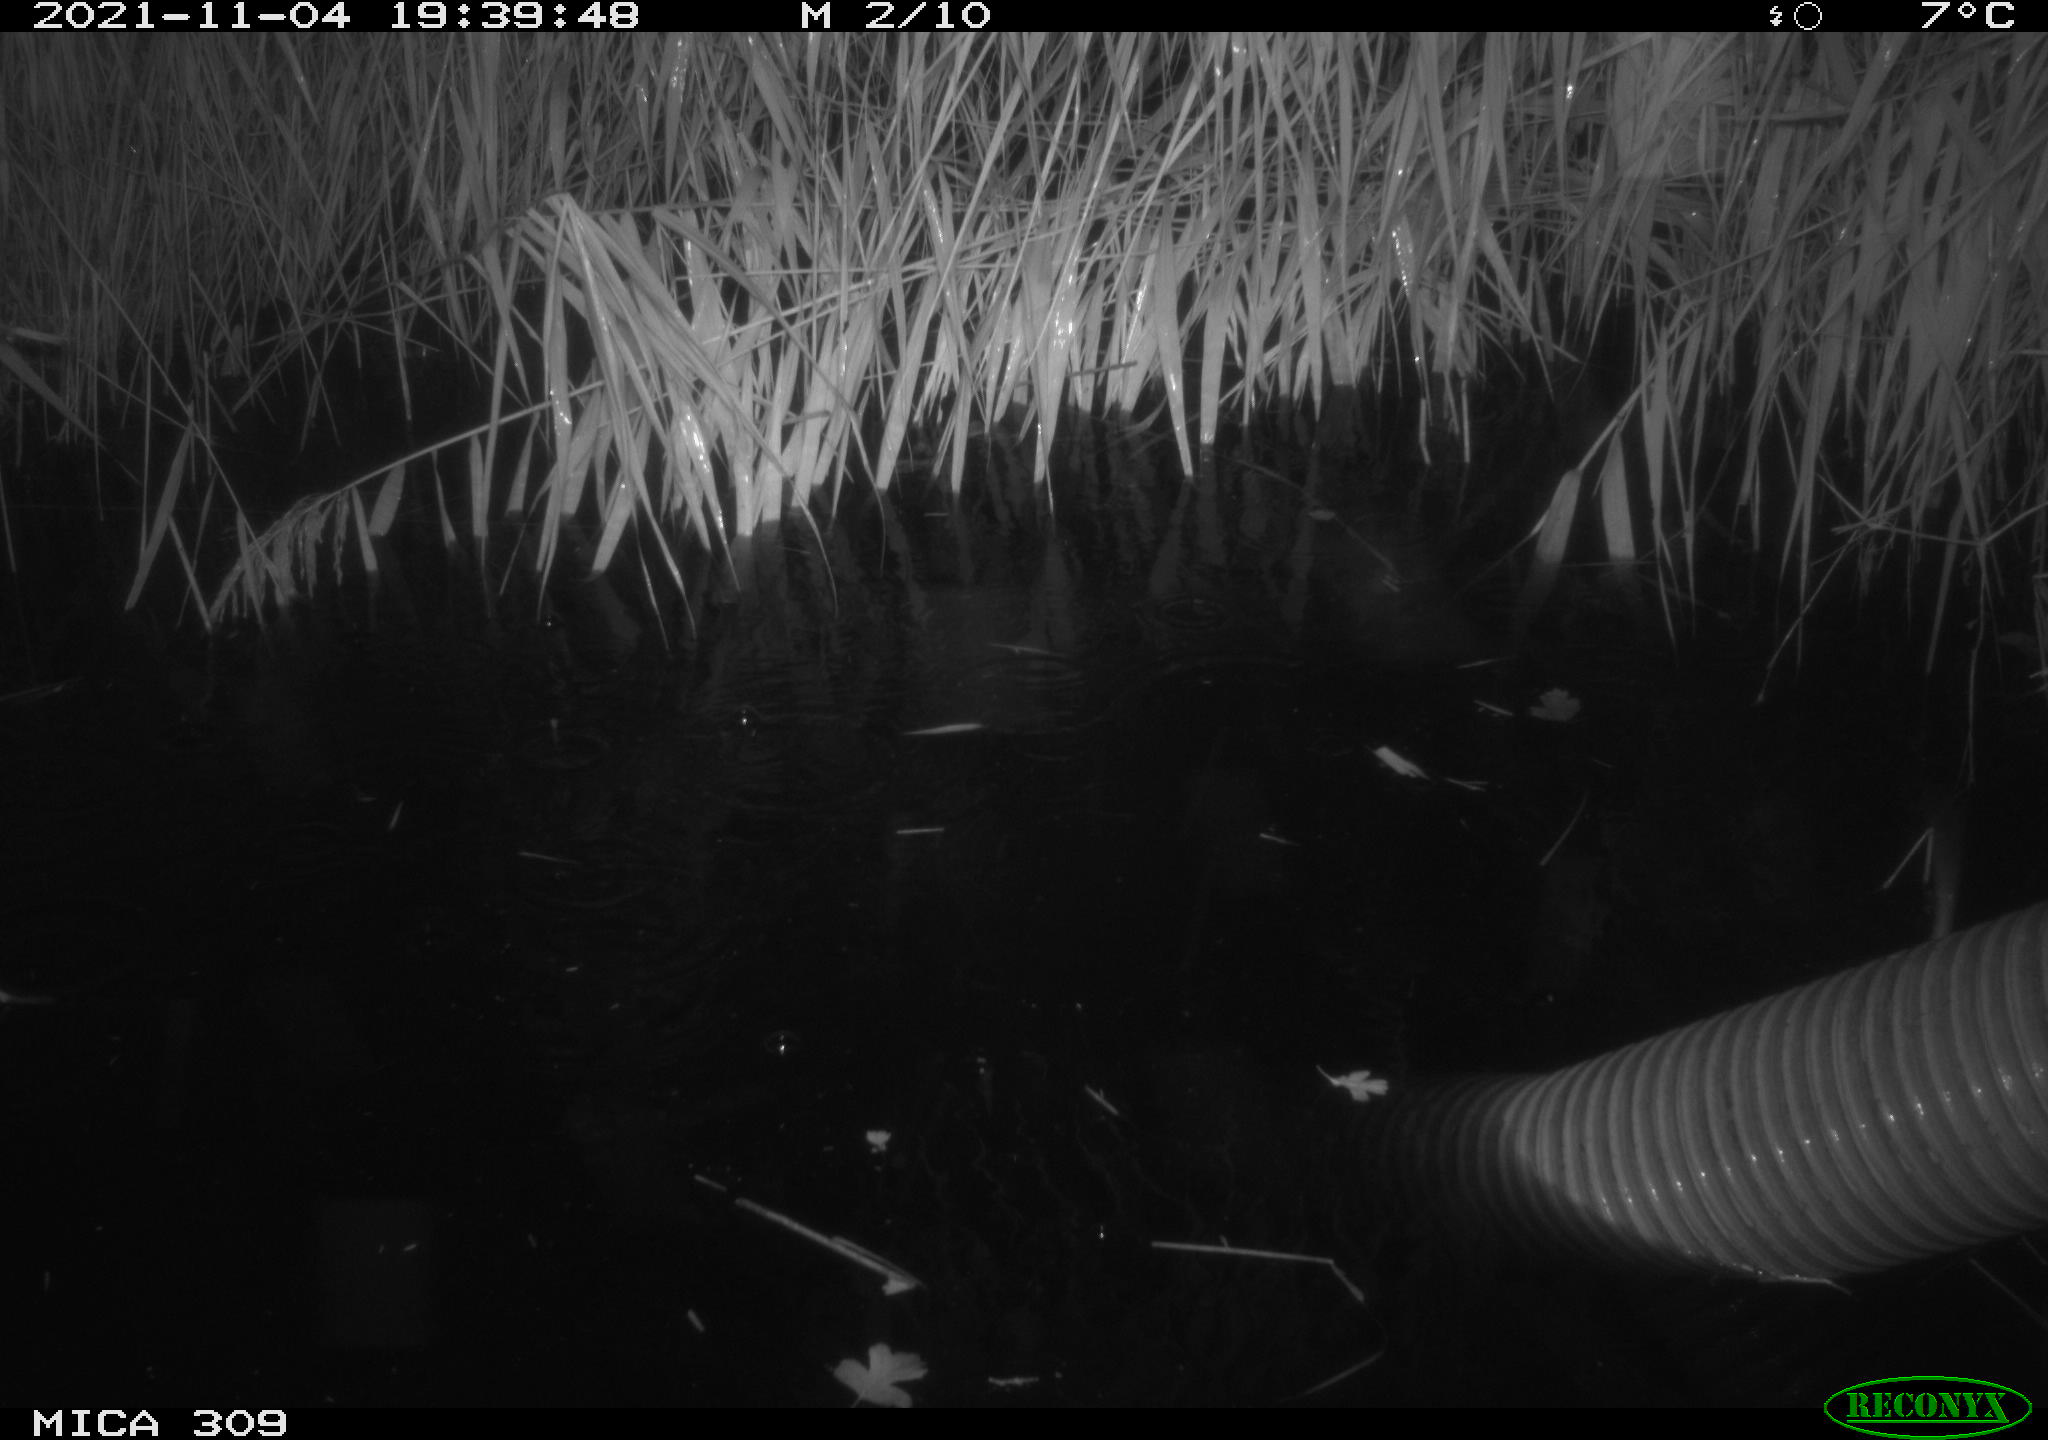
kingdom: Animalia
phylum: Chordata
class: Mammalia
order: Rodentia
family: Muridae
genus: Rattus
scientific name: Rattus norvegicus
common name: Brown rat
